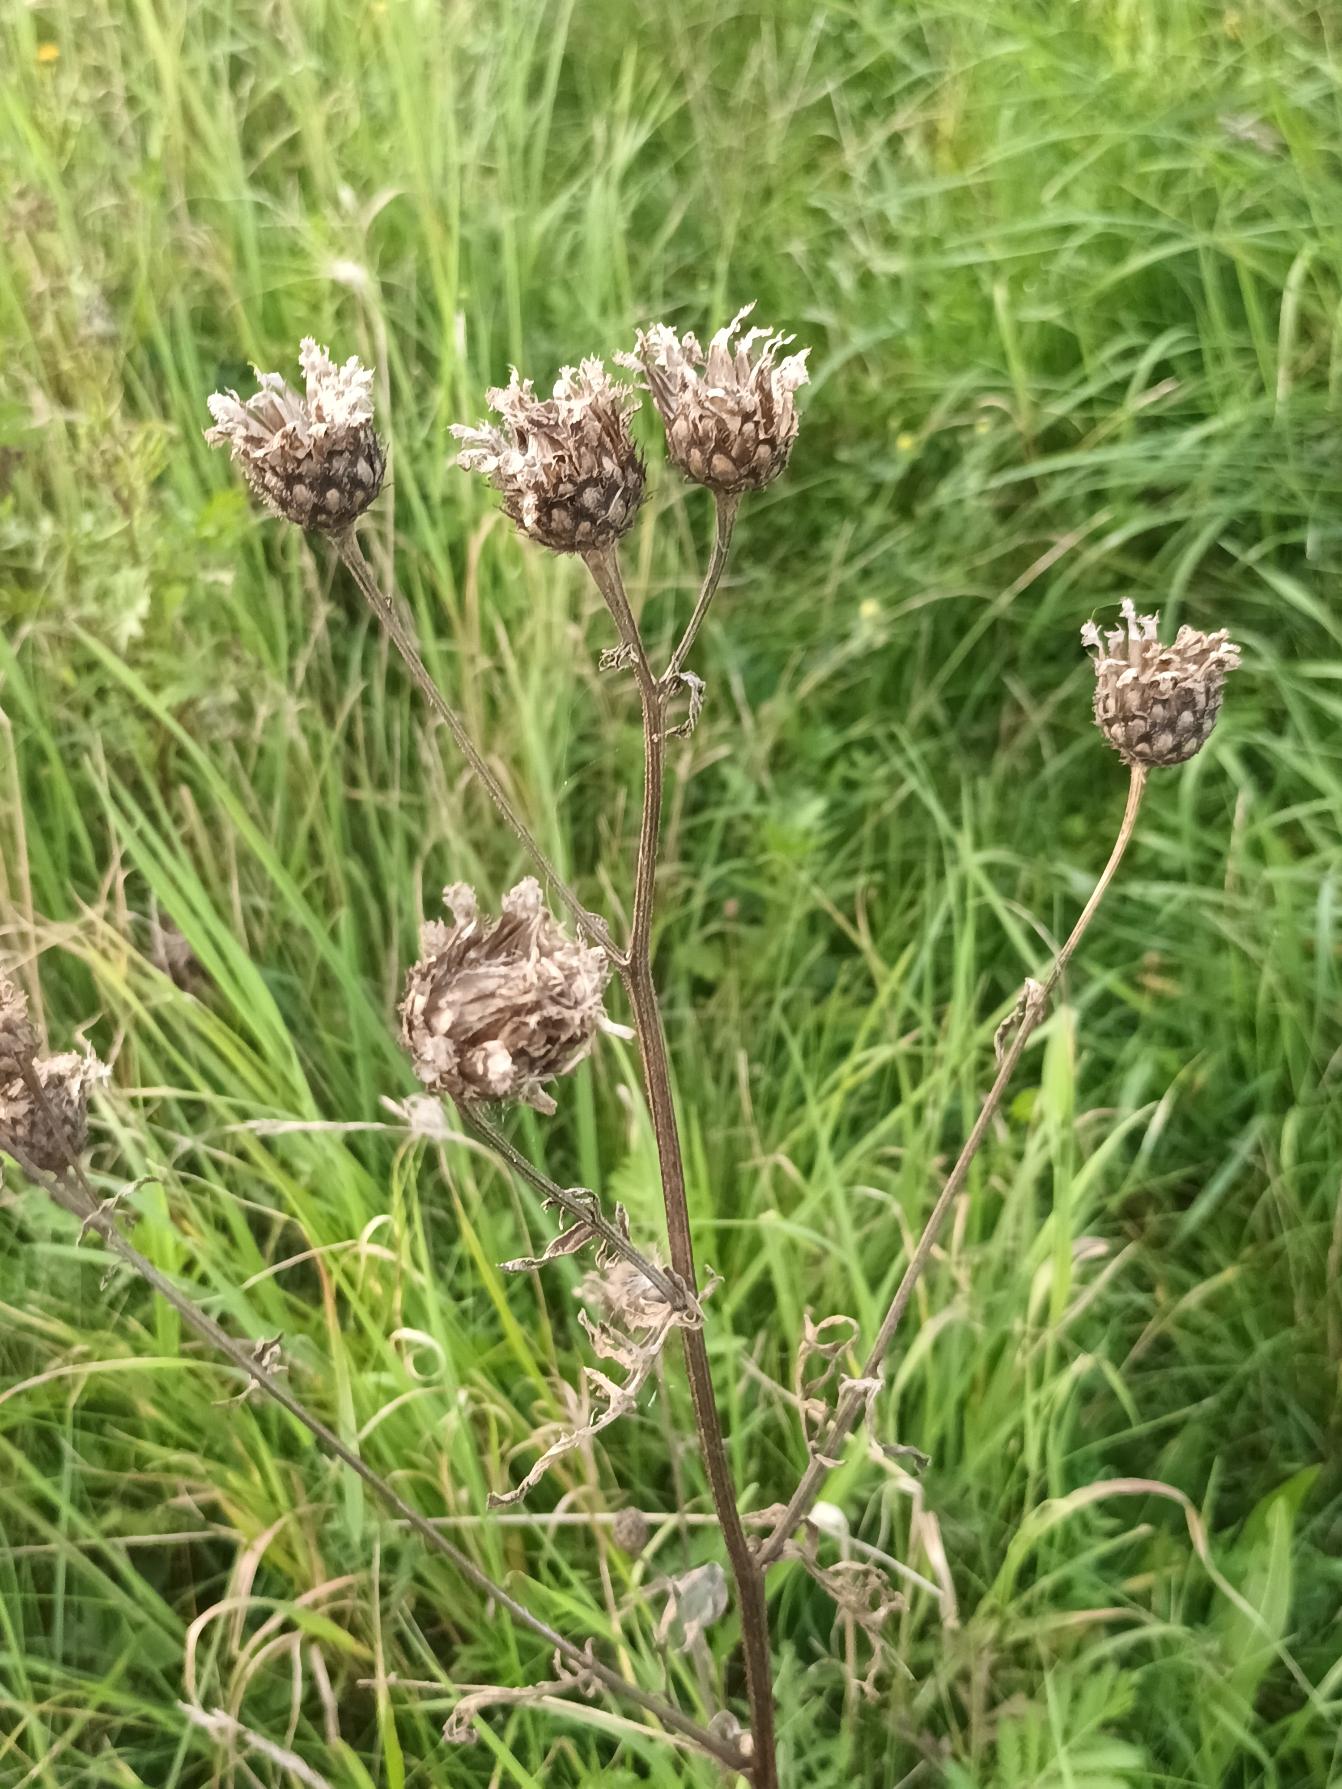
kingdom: Plantae
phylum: Tracheophyta
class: Magnoliopsida
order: Asterales
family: Asteraceae
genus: Centaurea
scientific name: Centaurea scabiosa
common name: Stor knopurt
